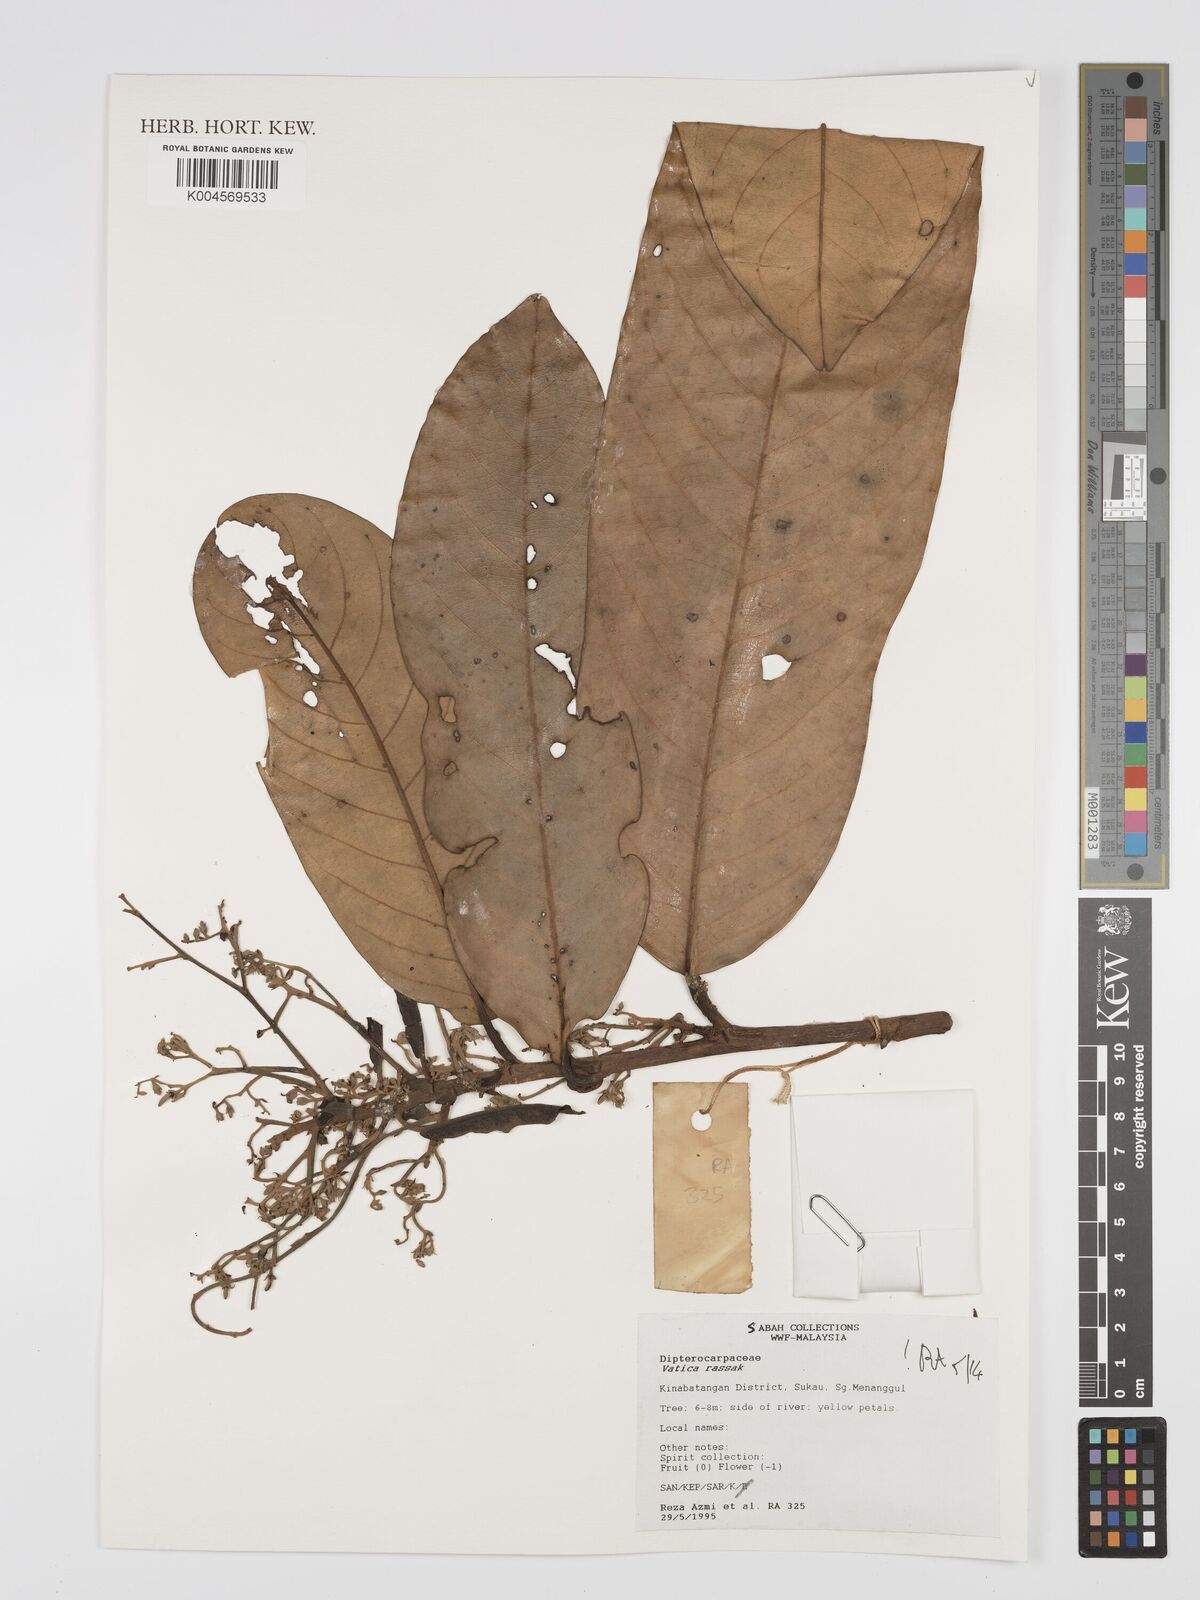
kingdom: Plantae
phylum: Tracheophyta
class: Magnoliopsida
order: Malvales
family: Dipterocarpaceae
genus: Vatica
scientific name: Vatica rassak
